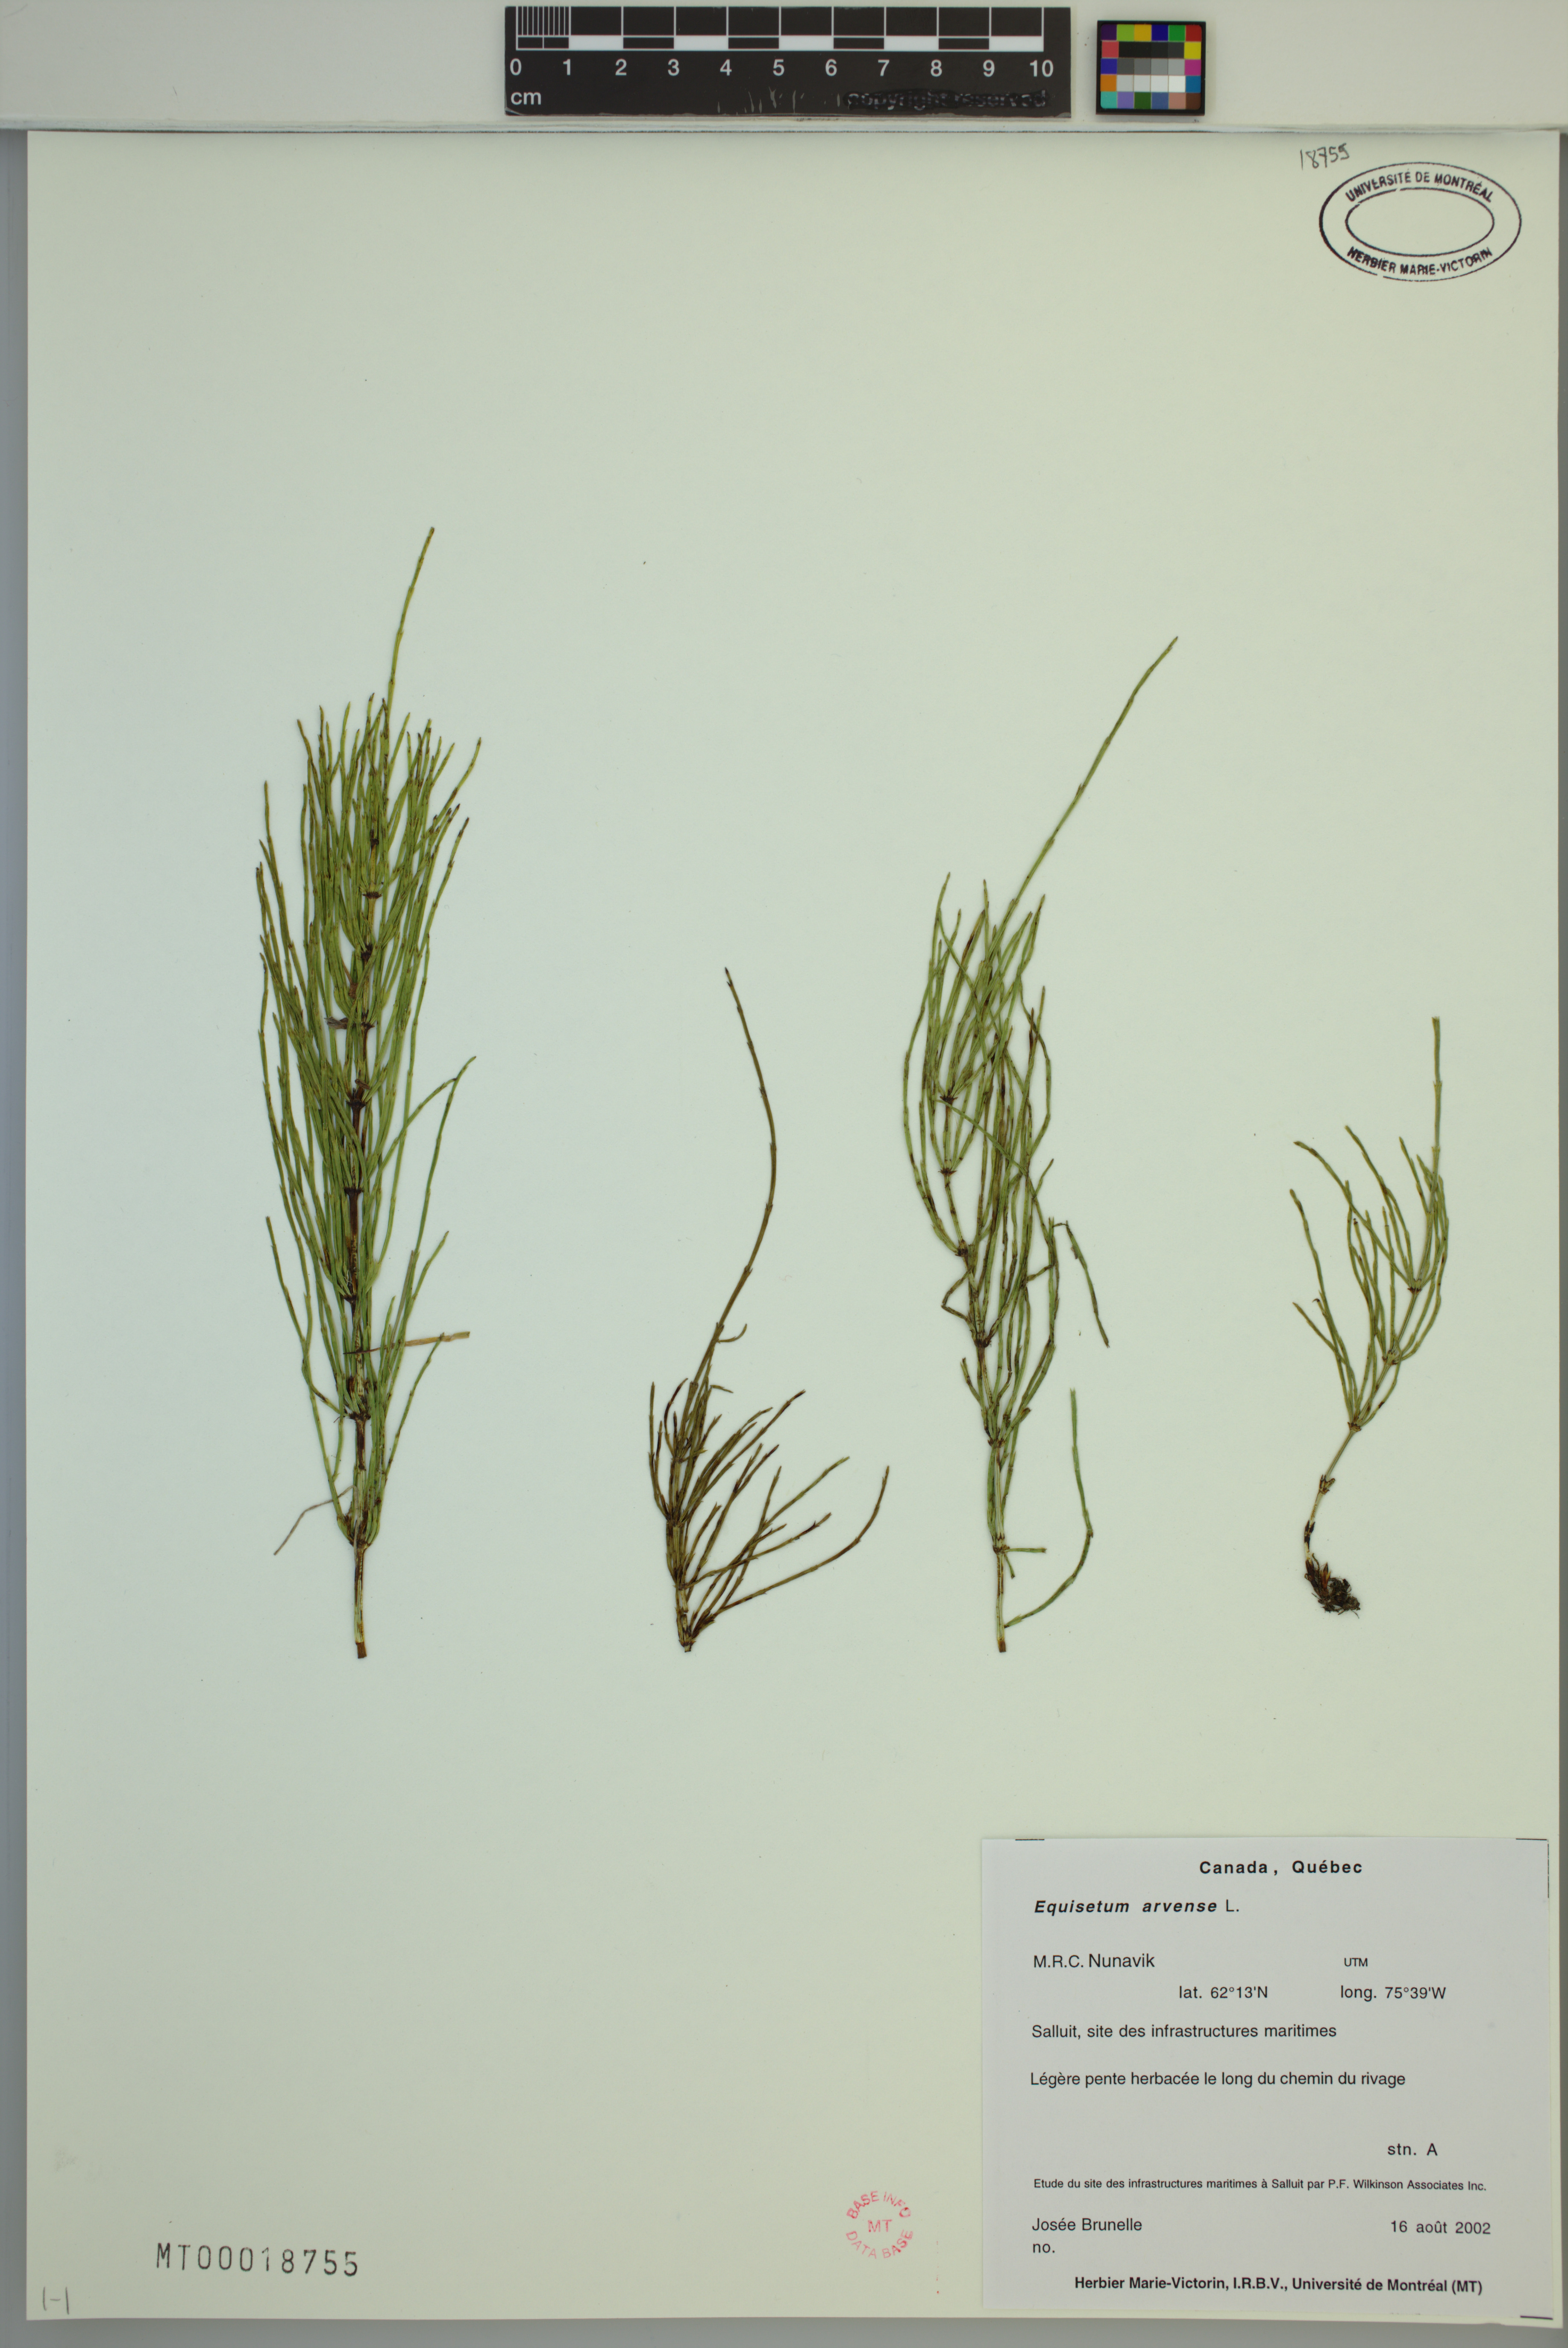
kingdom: Plantae
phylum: Tracheophyta
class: Polypodiopsida
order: Equisetales
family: Equisetaceae
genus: Equisetum
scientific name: Equisetum arvense
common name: Field horsetail
